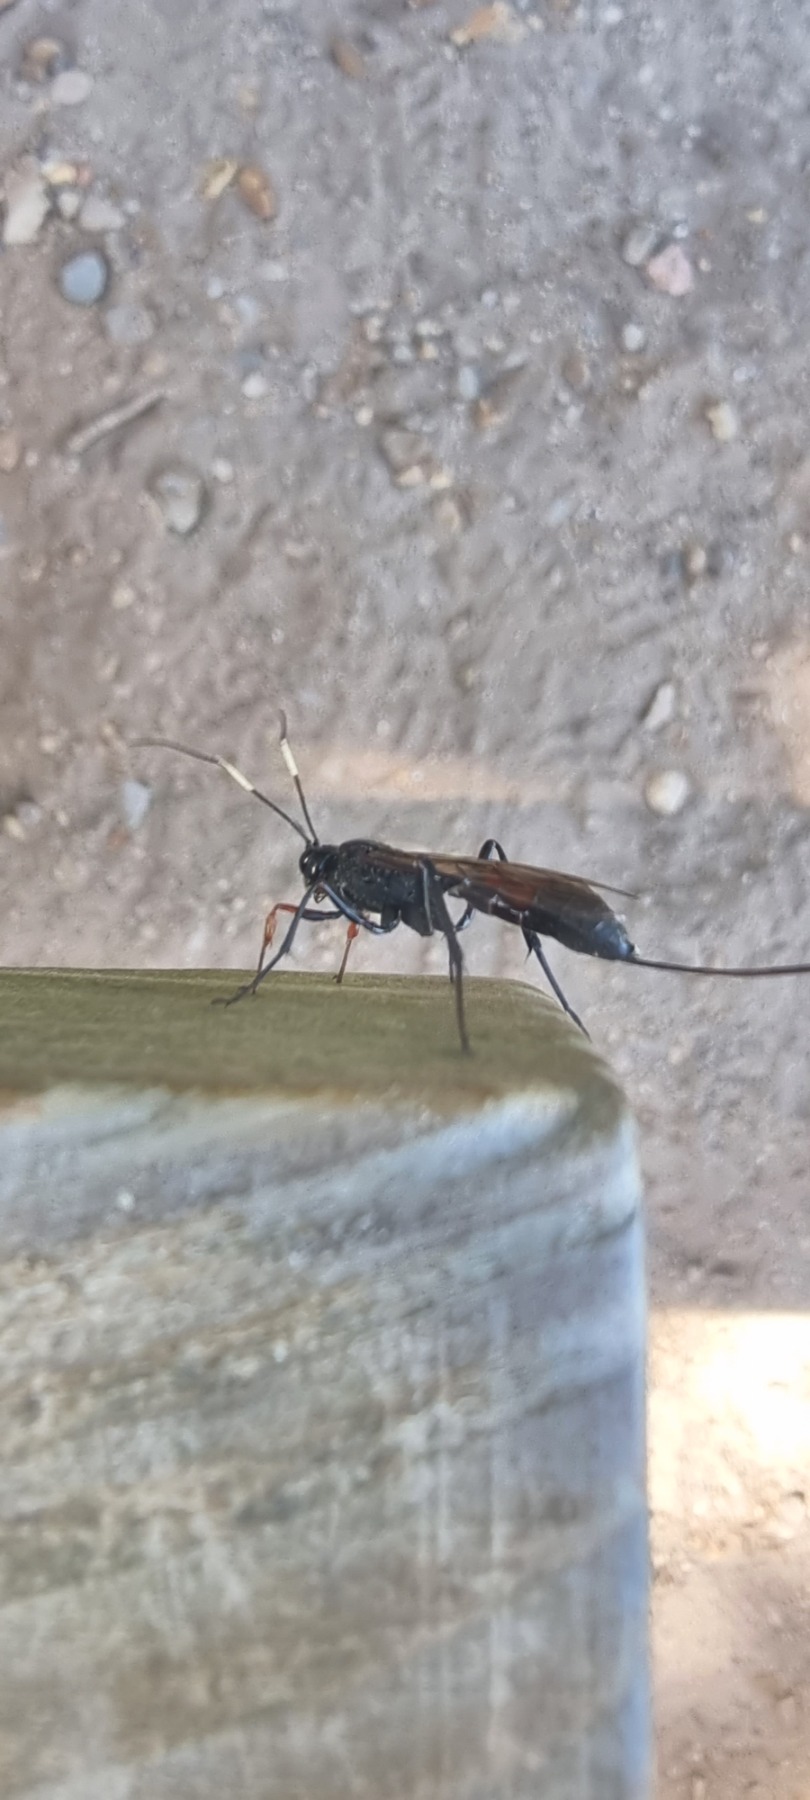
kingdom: Animalia
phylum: Arthropoda
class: Insecta
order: Hymenoptera
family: Ichneumonidae
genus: Echthrus
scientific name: Echthrus reluctator
